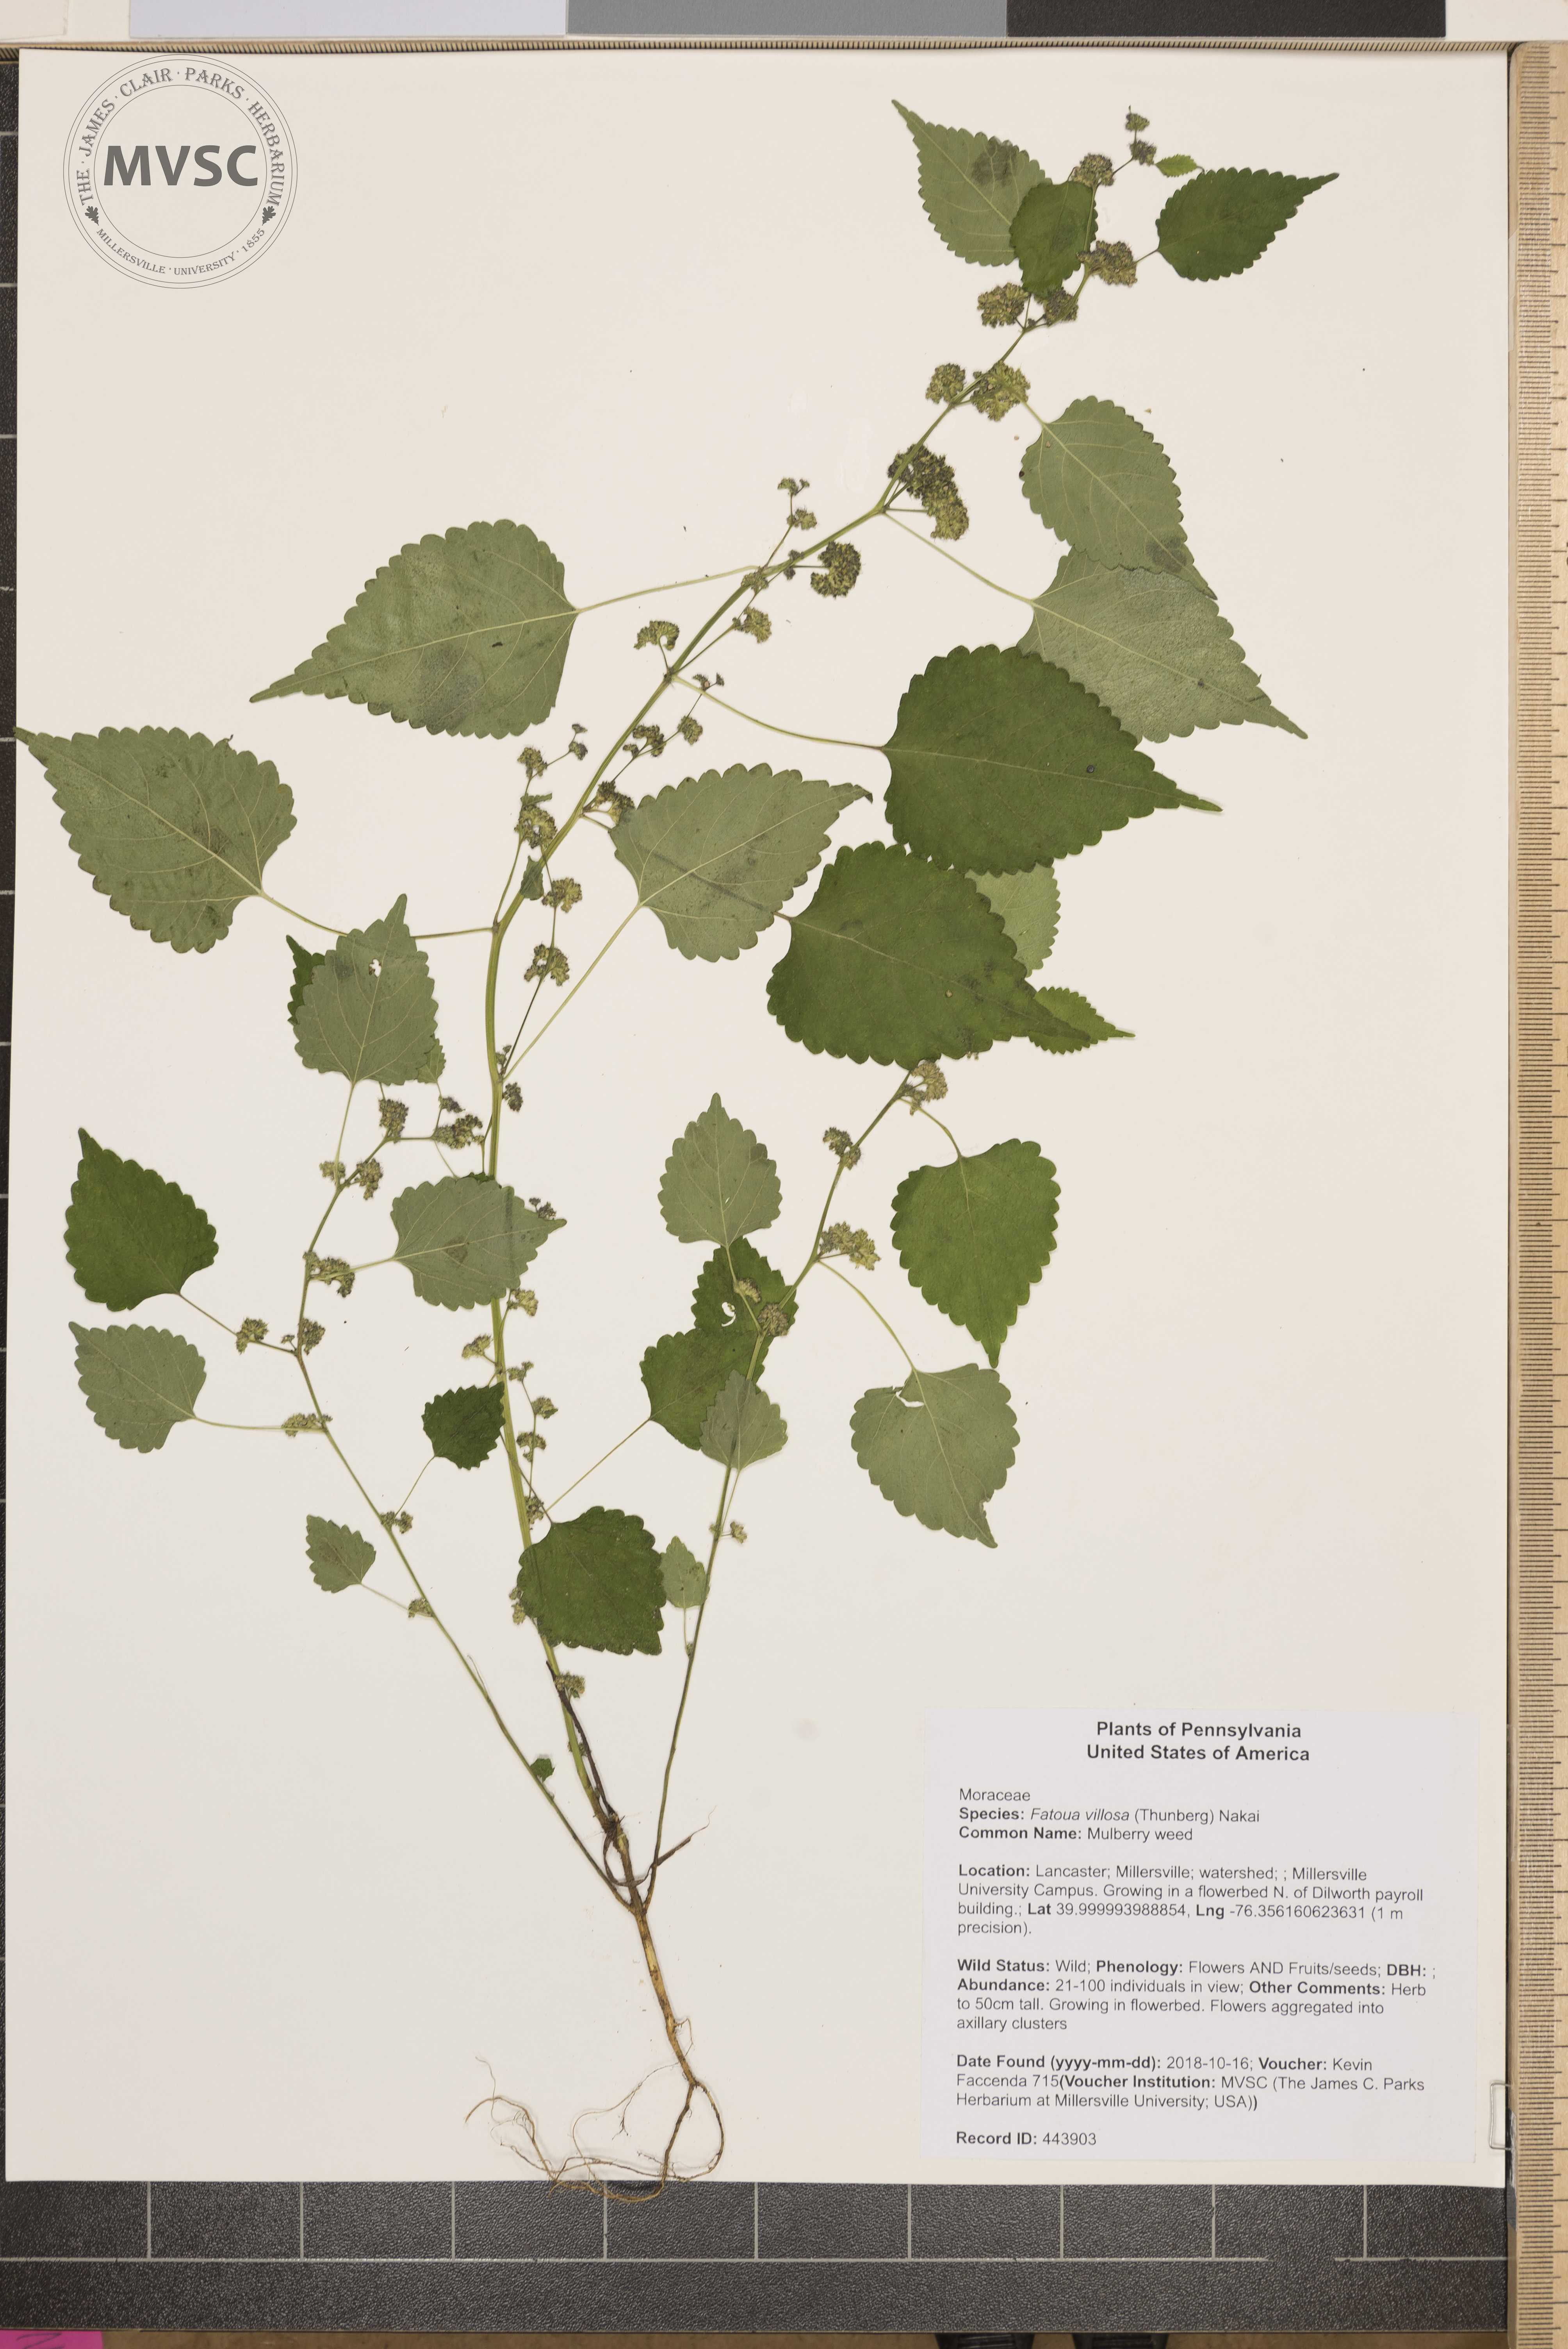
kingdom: Plantae
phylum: Tracheophyta
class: Magnoliopsida
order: Rosales
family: Moraceae
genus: Fatoua
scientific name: Fatoua villosa
